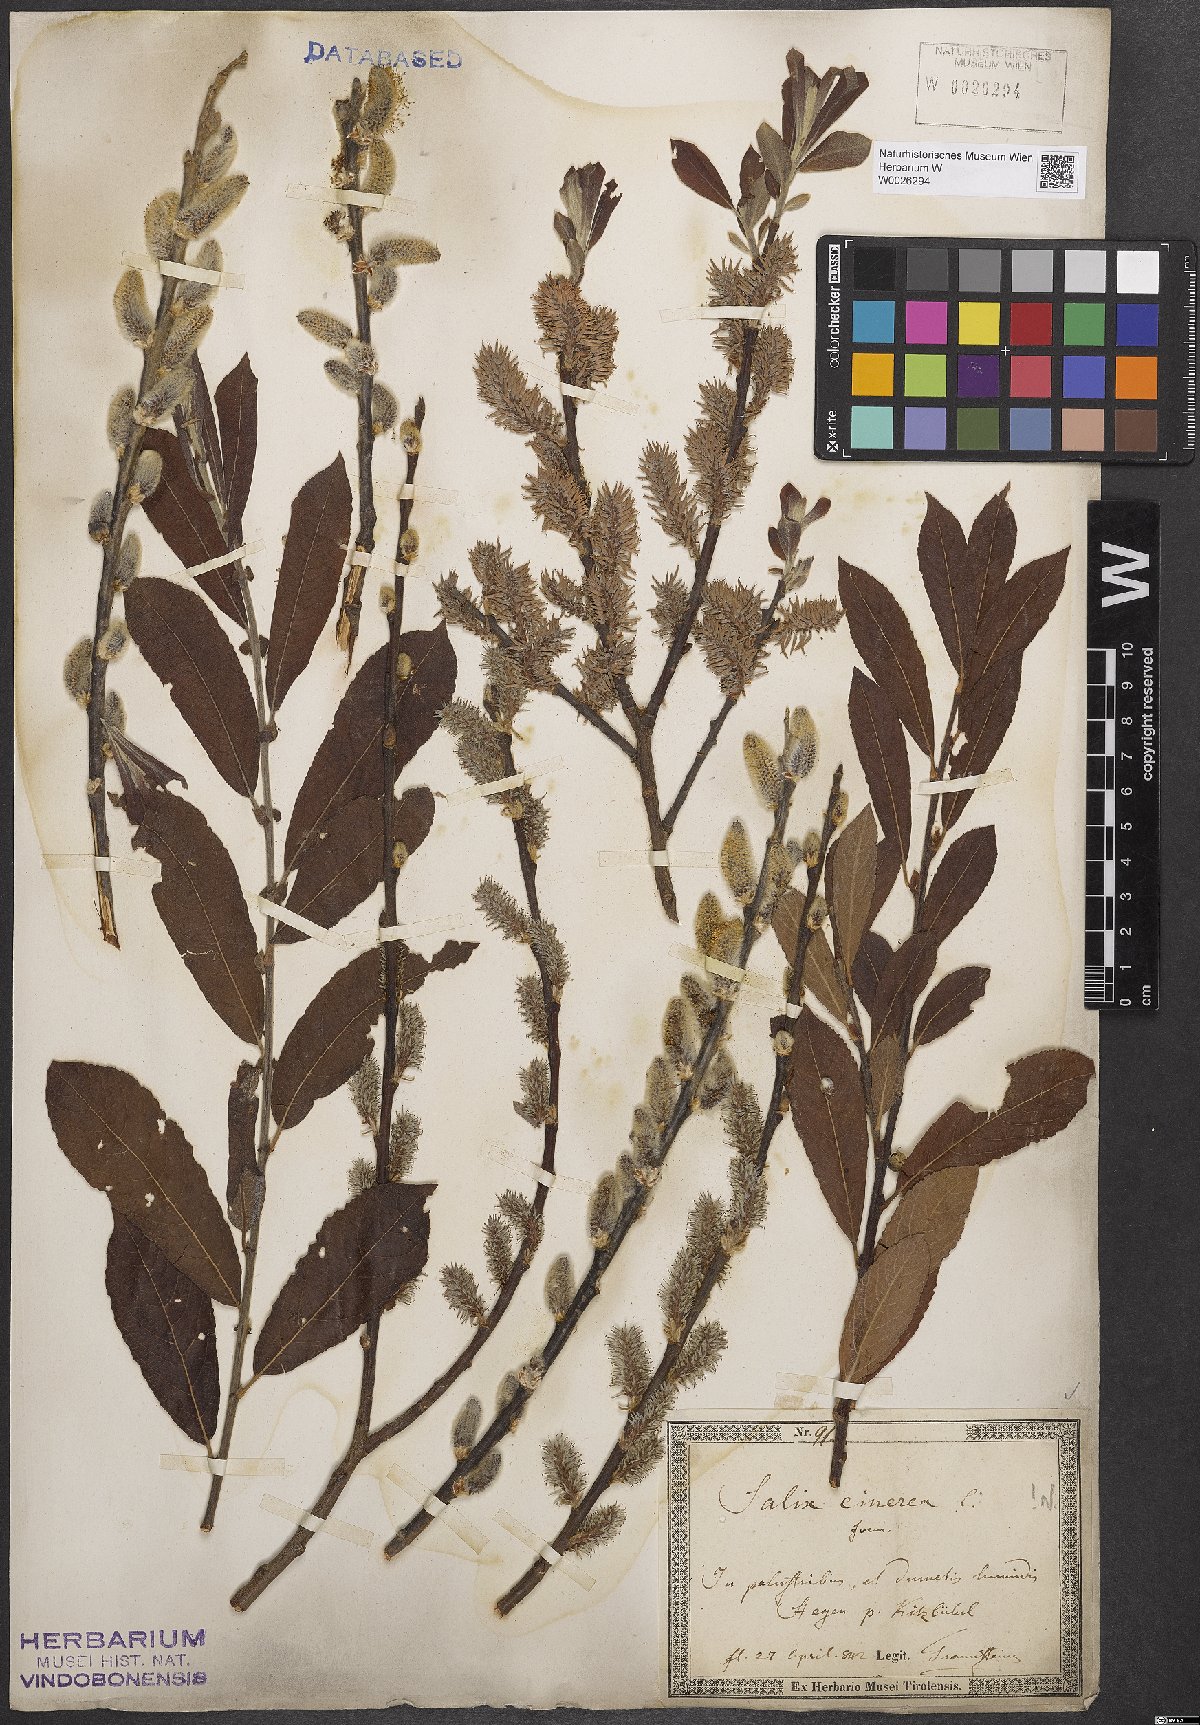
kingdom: Plantae
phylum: Tracheophyta
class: Magnoliopsida
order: Malpighiales
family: Salicaceae
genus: Salix
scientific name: Salix cinerea
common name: Common sallow
